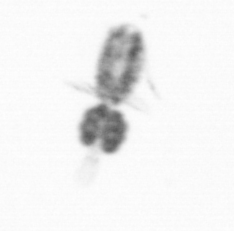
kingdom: Animalia
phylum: Arthropoda
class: Copepoda
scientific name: Copepoda
